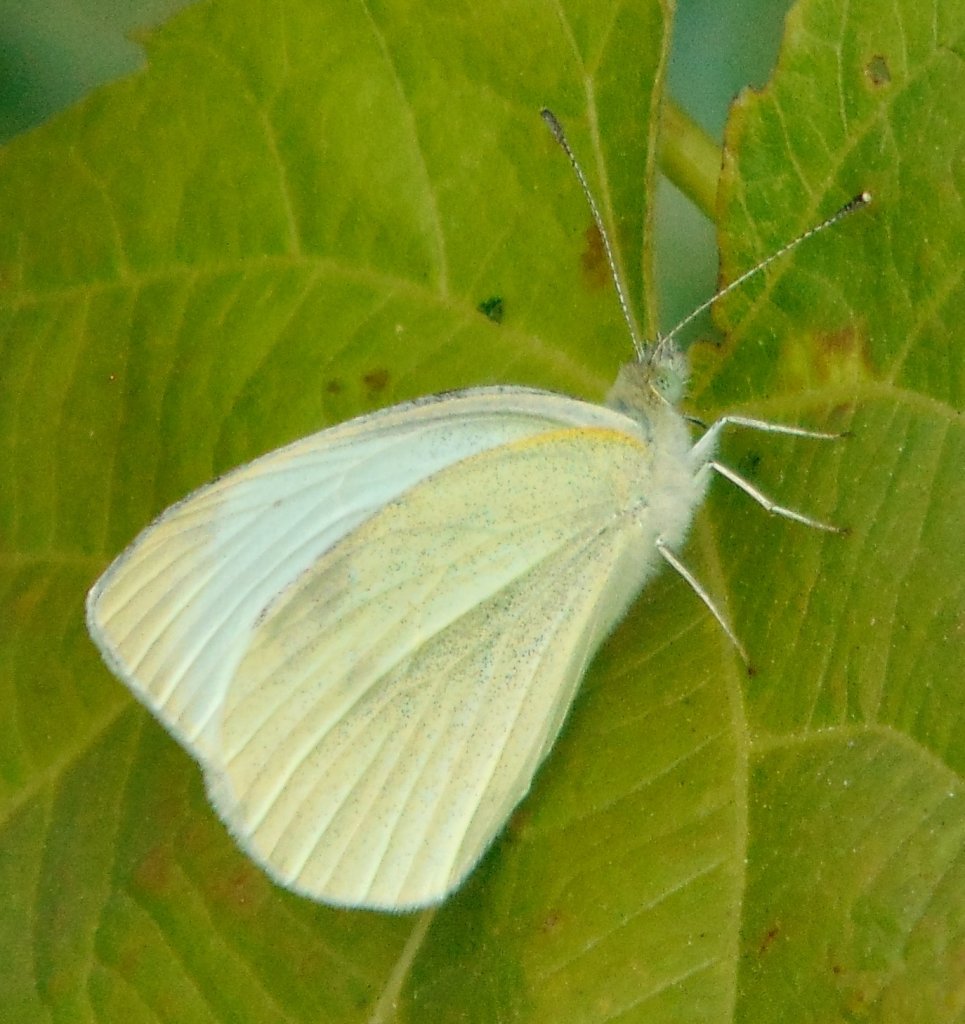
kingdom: Animalia
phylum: Arthropoda
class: Insecta
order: Lepidoptera
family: Pieridae
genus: Pieris
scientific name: Pieris rapae
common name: Cabbage White
